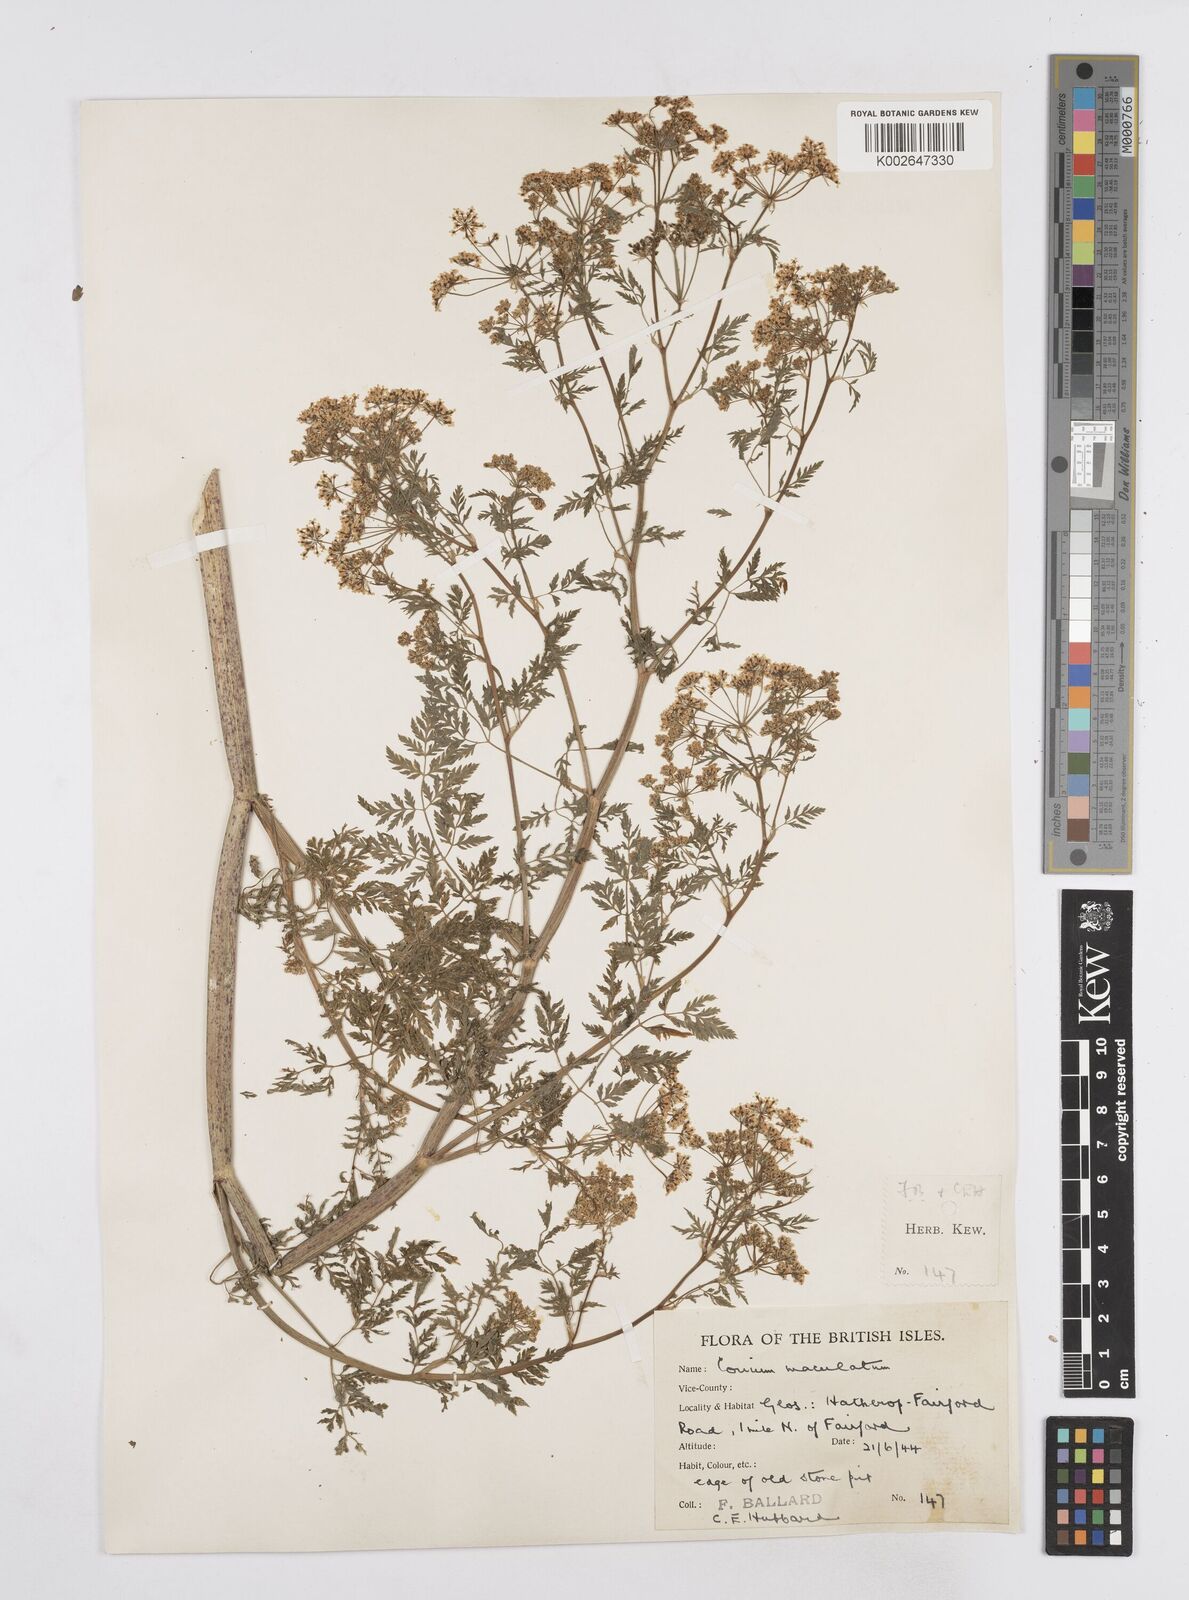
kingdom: Plantae
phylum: Tracheophyta
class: Magnoliopsida
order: Apiales
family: Apiaceae
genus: Conium
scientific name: Conium maculatum
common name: Hemlock
